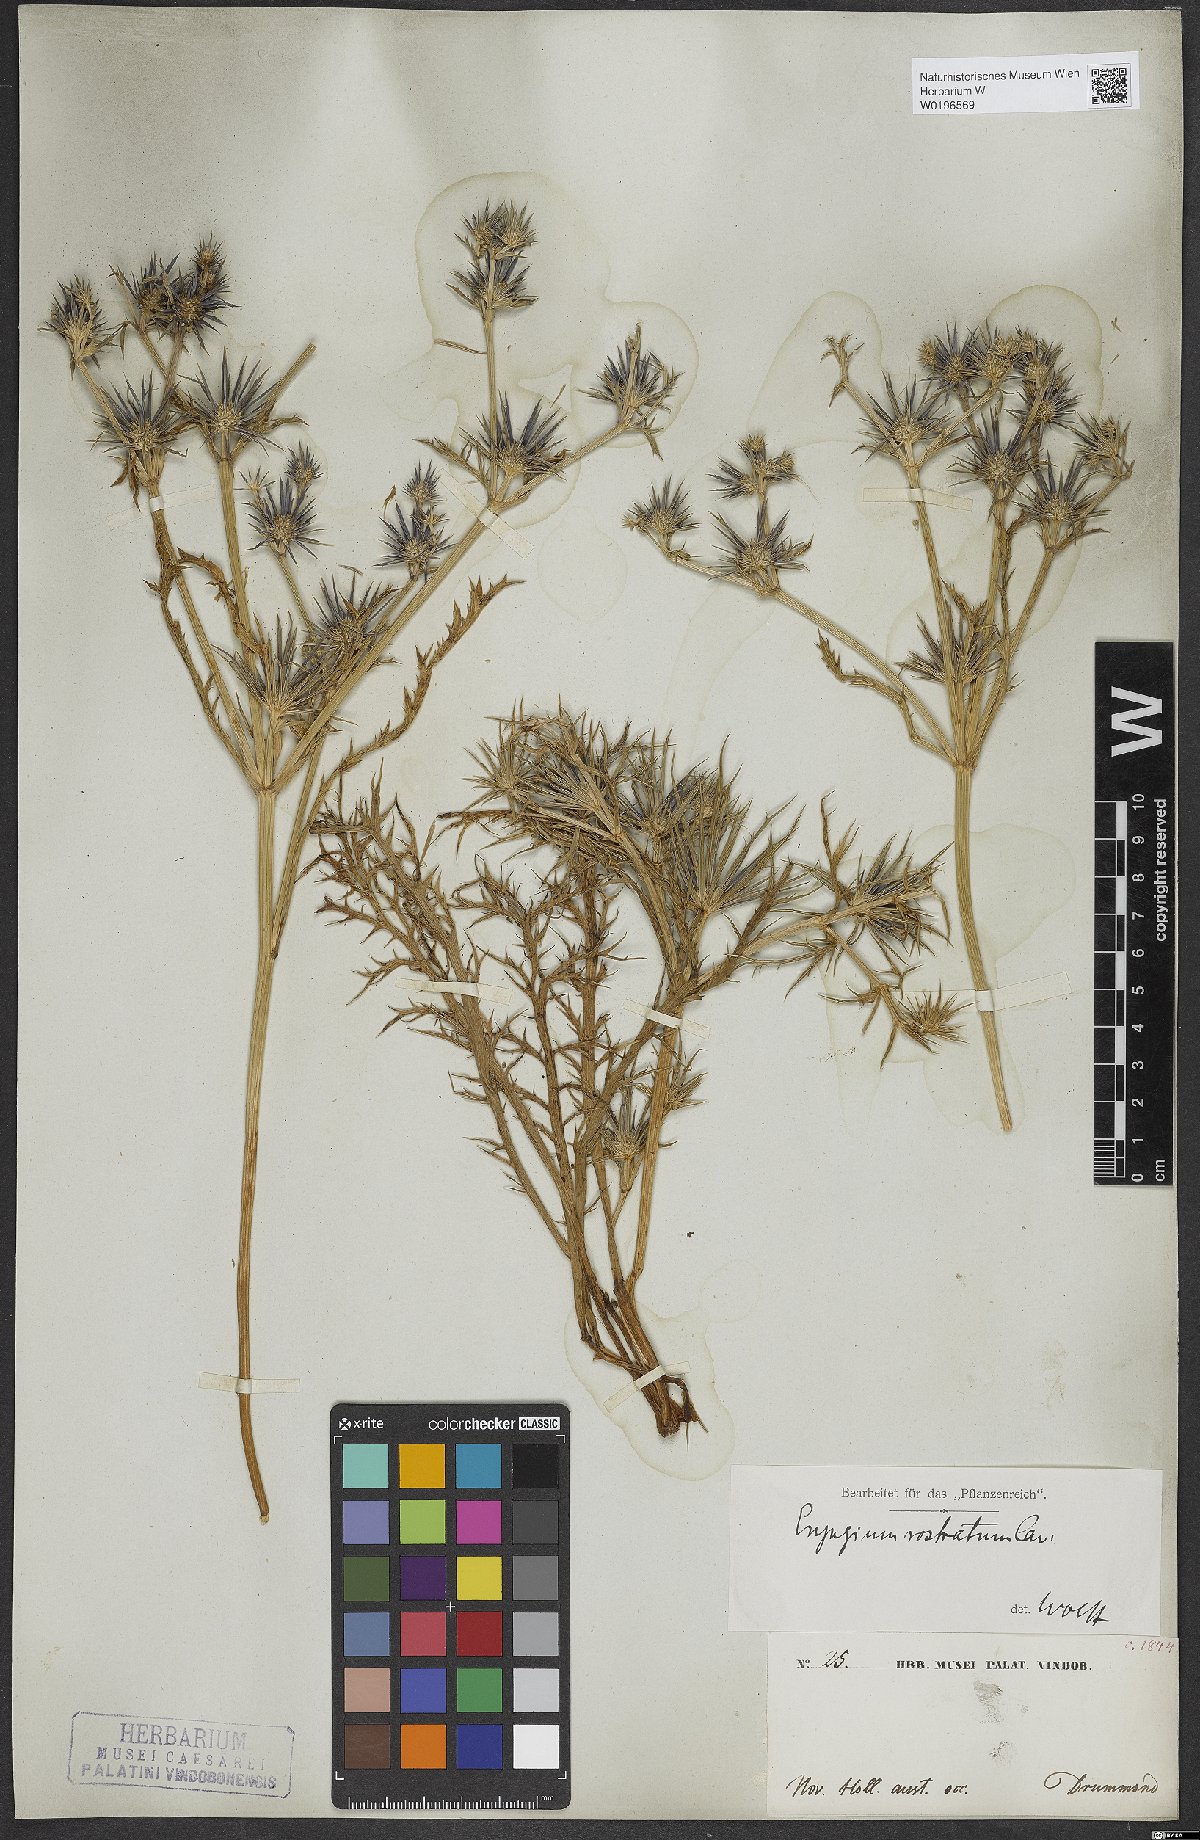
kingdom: Plantae
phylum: Tracheophyta
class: Magnoliopsida
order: Apiales
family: Apiaceae
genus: Eryngium
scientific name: Eryngium rostratum
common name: Blue eryngo
